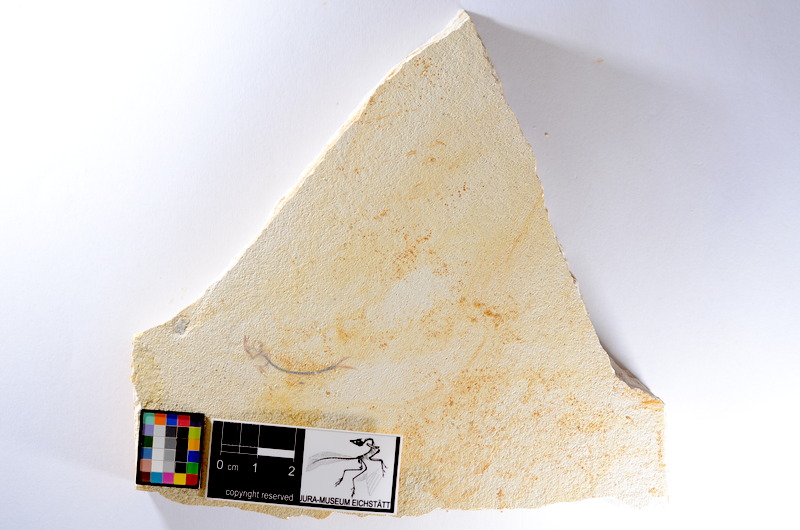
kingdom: Animalia
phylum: Chordata
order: Salmoniformes
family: Orthogonikleithridae
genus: Orthogonikleithrus
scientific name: Orthogonikleithrus hoelli
